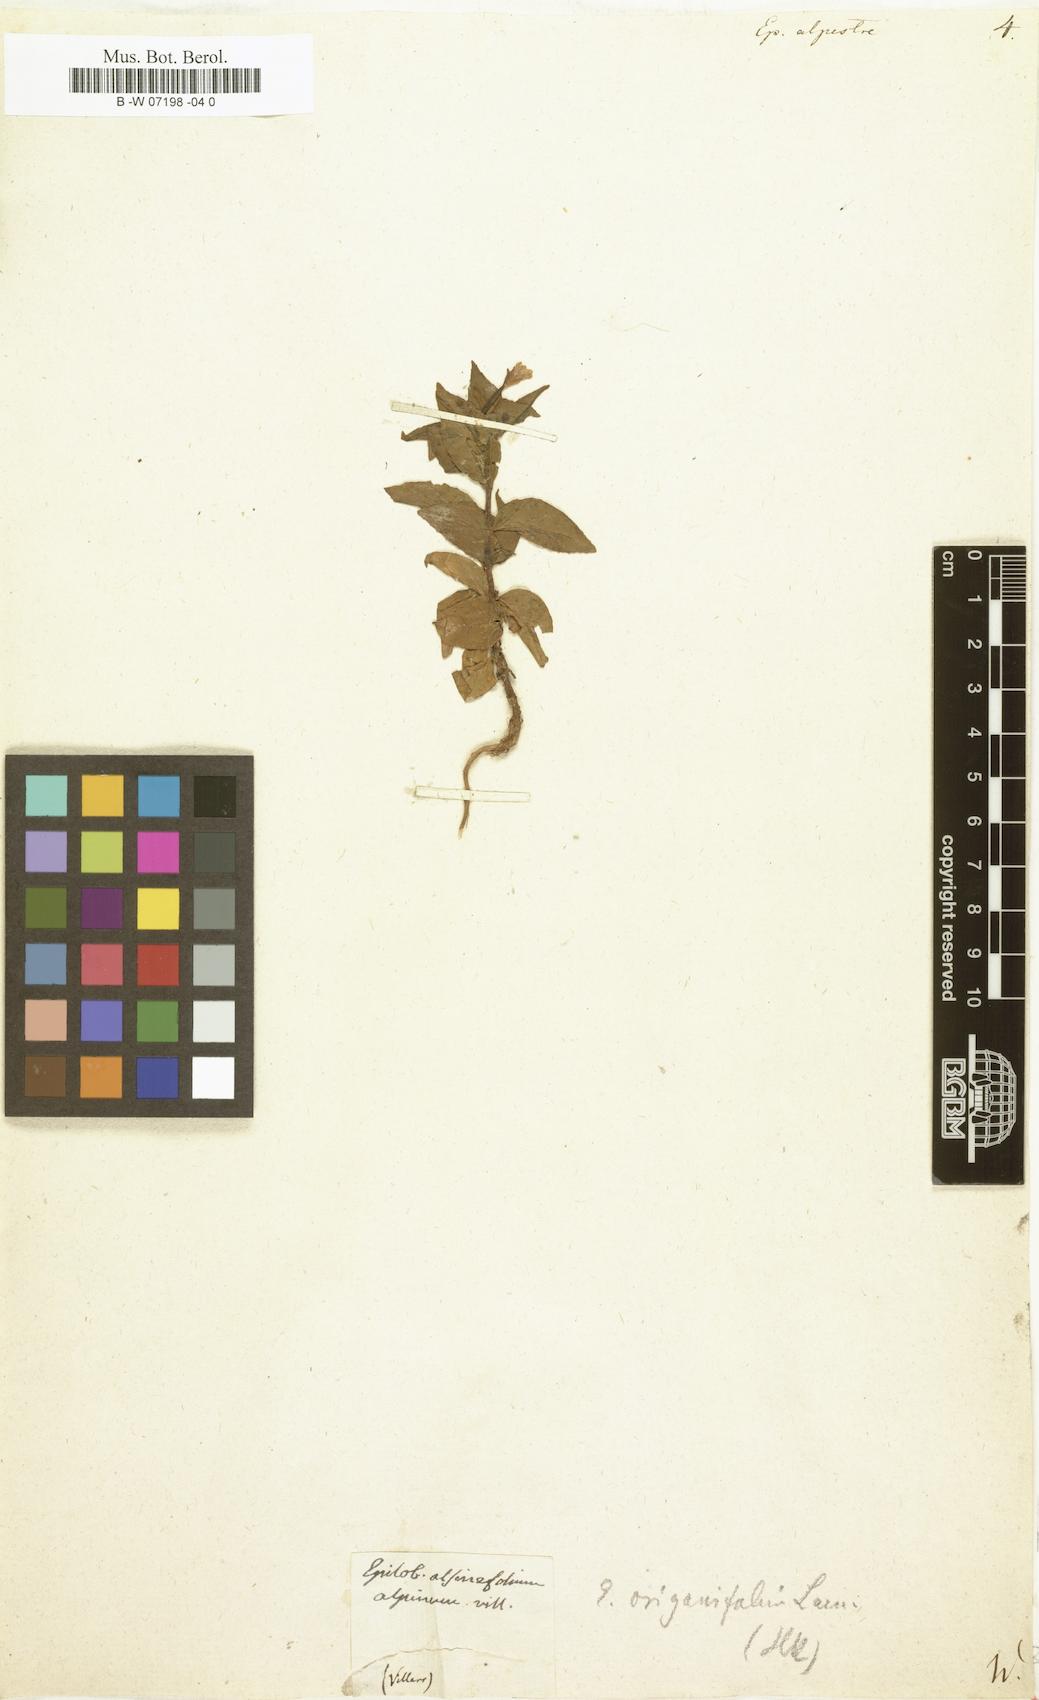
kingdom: Plantae
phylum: Tracheophyta
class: Magnoliopsida
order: Myrtales
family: Onagraceae
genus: Epilobium
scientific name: Epilobium alpestre
